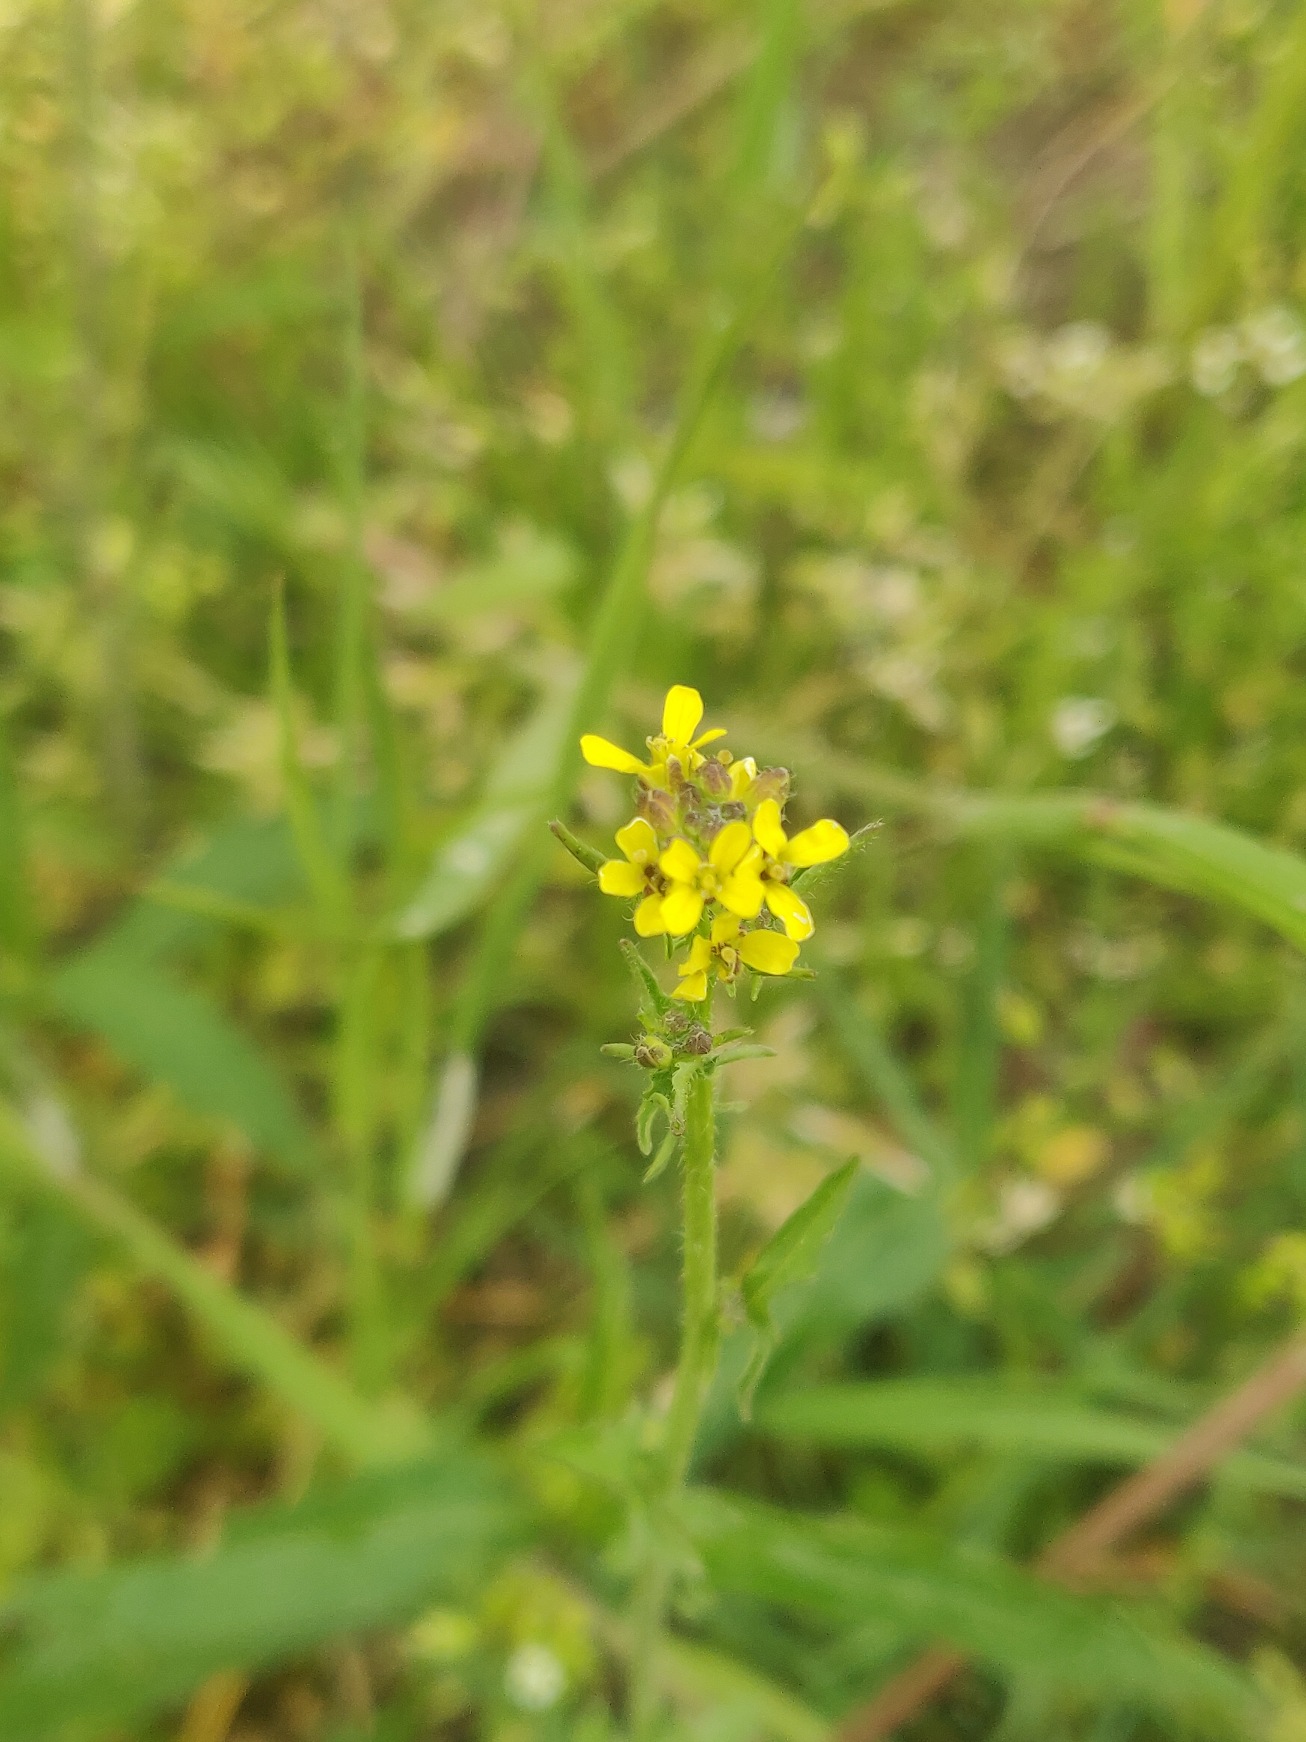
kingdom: Plantae
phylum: Tracheophyta
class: Magnoliopsida
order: Brassicales
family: Brassicaceae
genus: Sisymbrium
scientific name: Sisymbrium officinale
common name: Rank vejsennep
